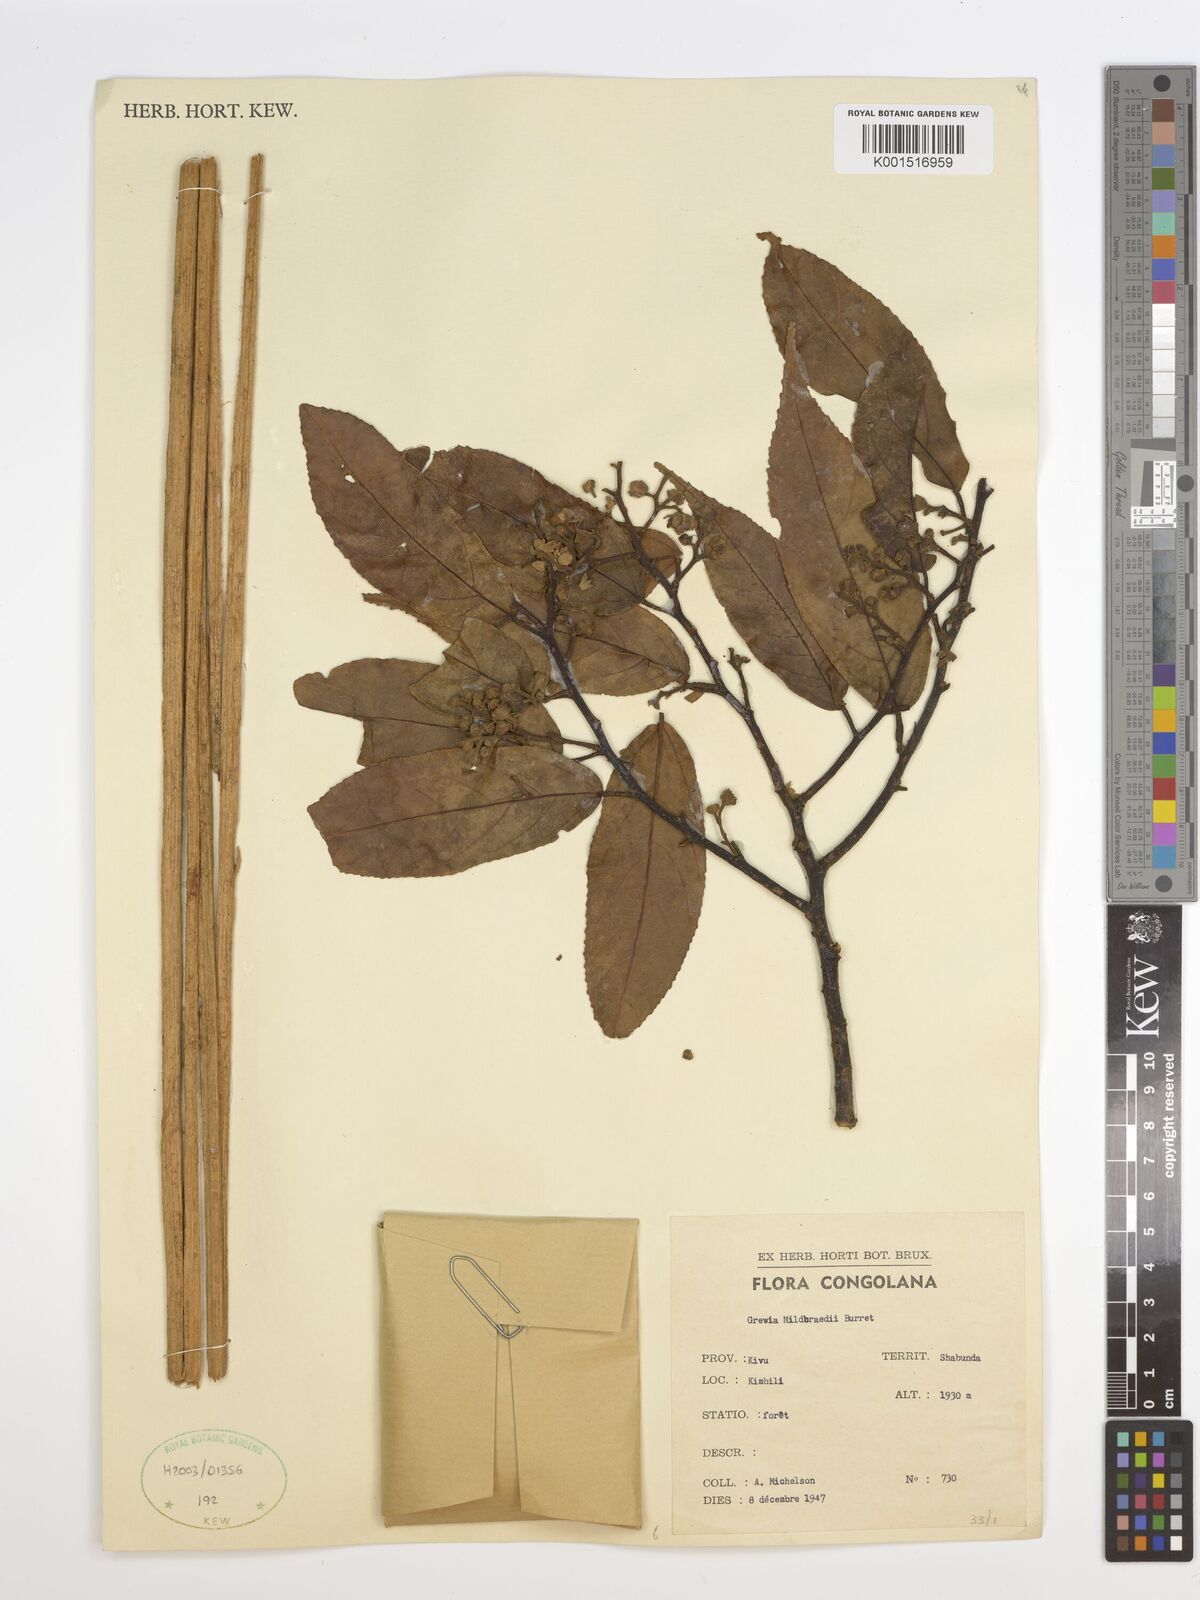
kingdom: Plantae
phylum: Tracheophyta
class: Magnoliopsida
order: Malvales
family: Malvaceae
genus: Microcos
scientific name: Microcos mildbraedii
